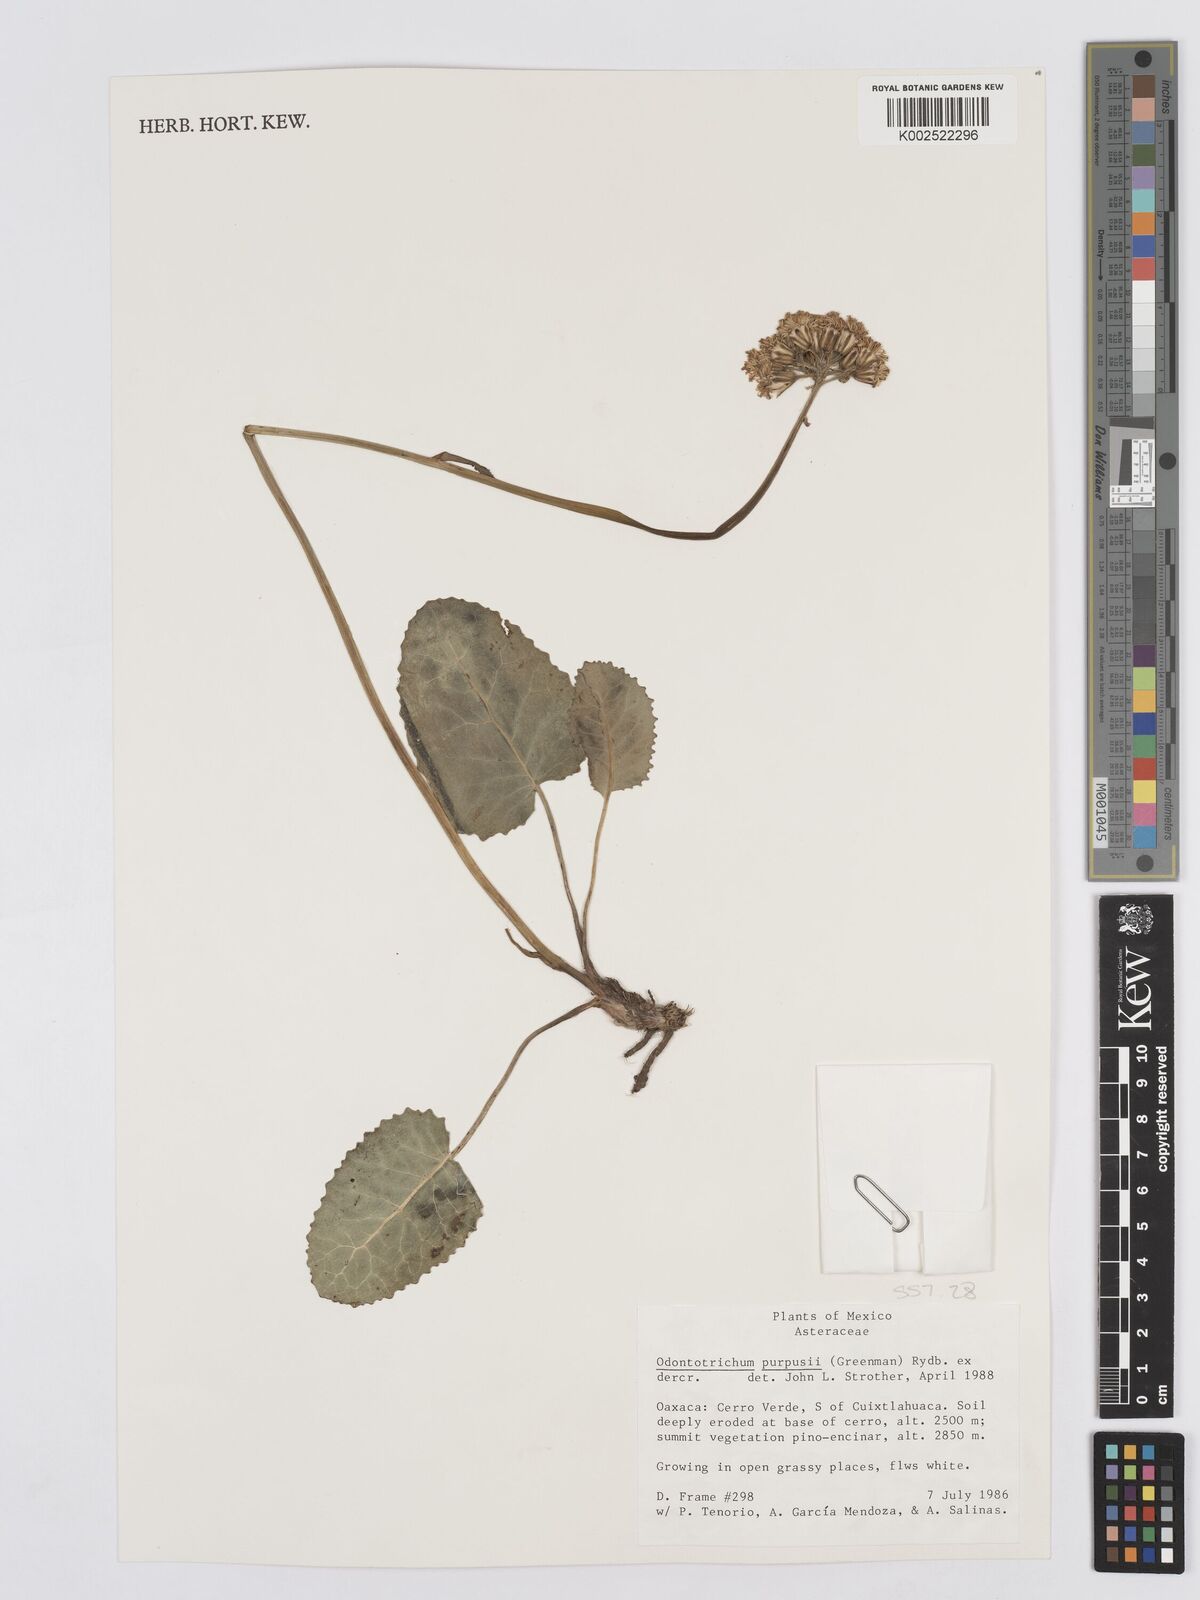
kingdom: Plantae
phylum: Tracheophyta
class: Magnoliopsida
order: Asterales
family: Asteraceae
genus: Psacalium
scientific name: Psacalium purpusii
